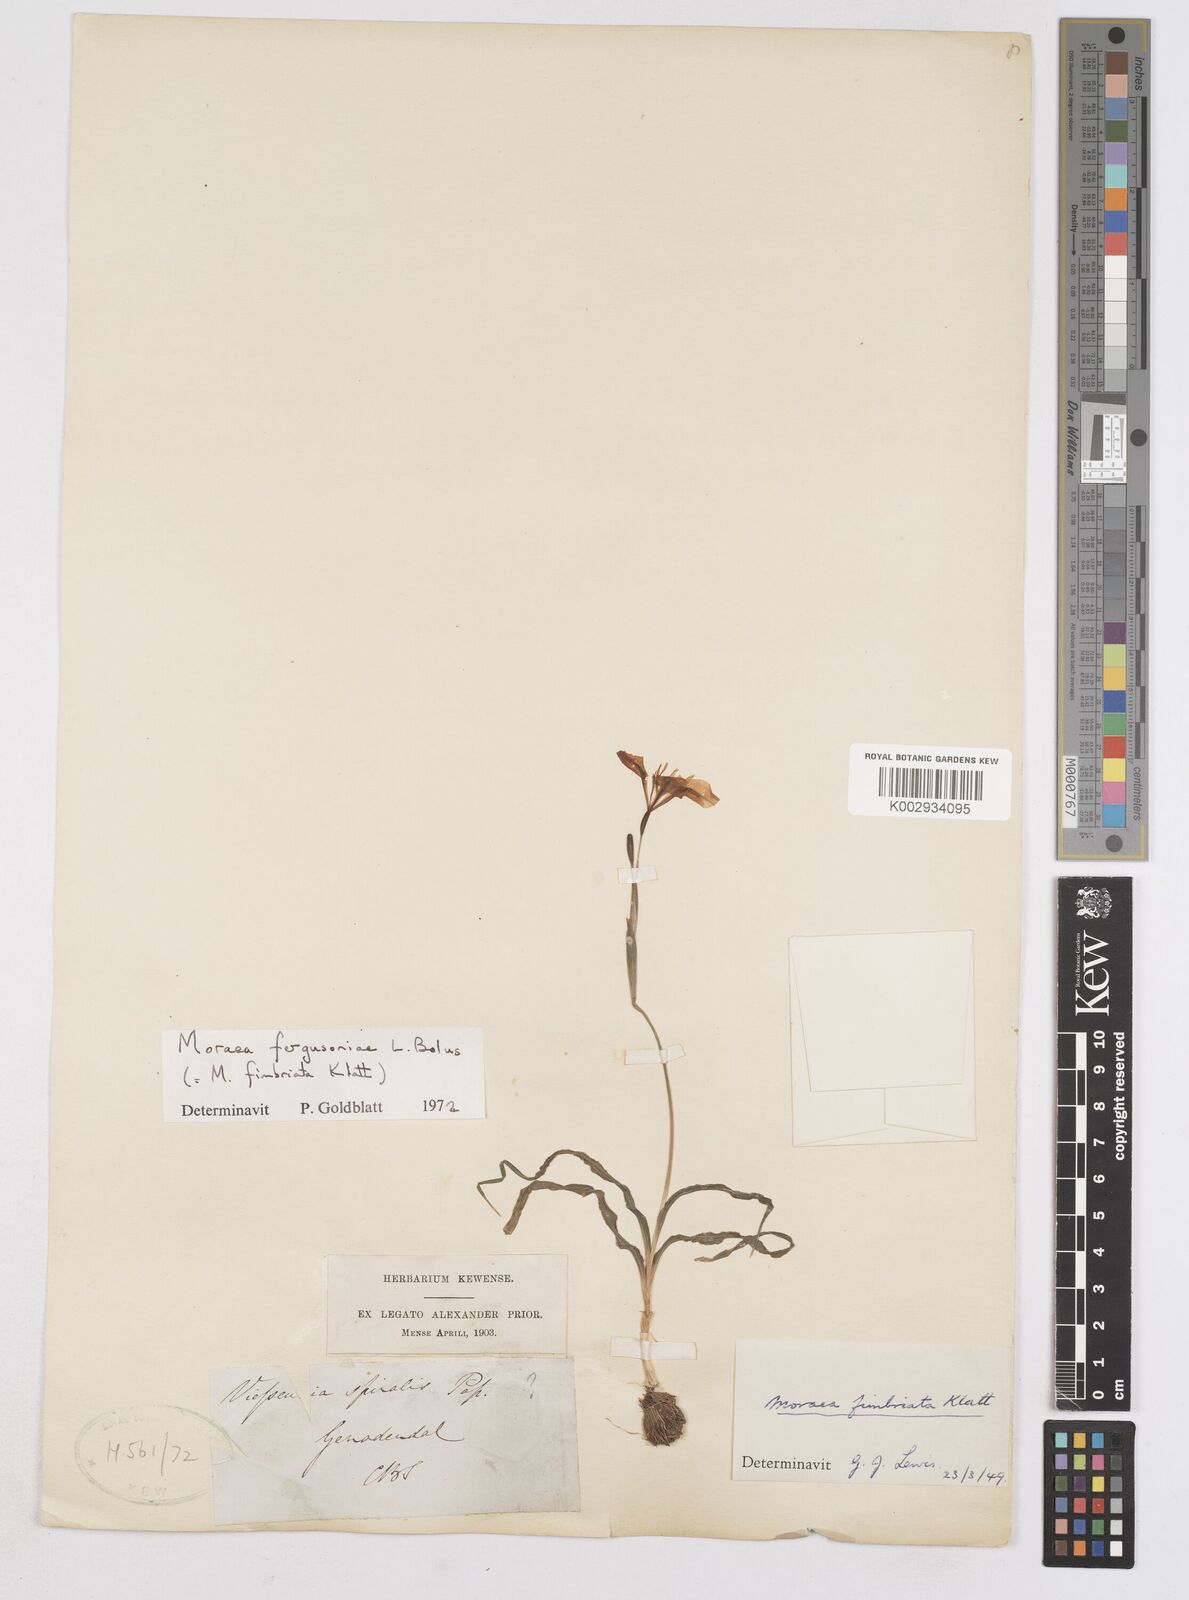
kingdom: Plantae
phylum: Tracheophyta
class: Liliopsida
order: Asparagales
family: Iridaceae
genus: Moraea
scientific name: Moraea fergusoniae
